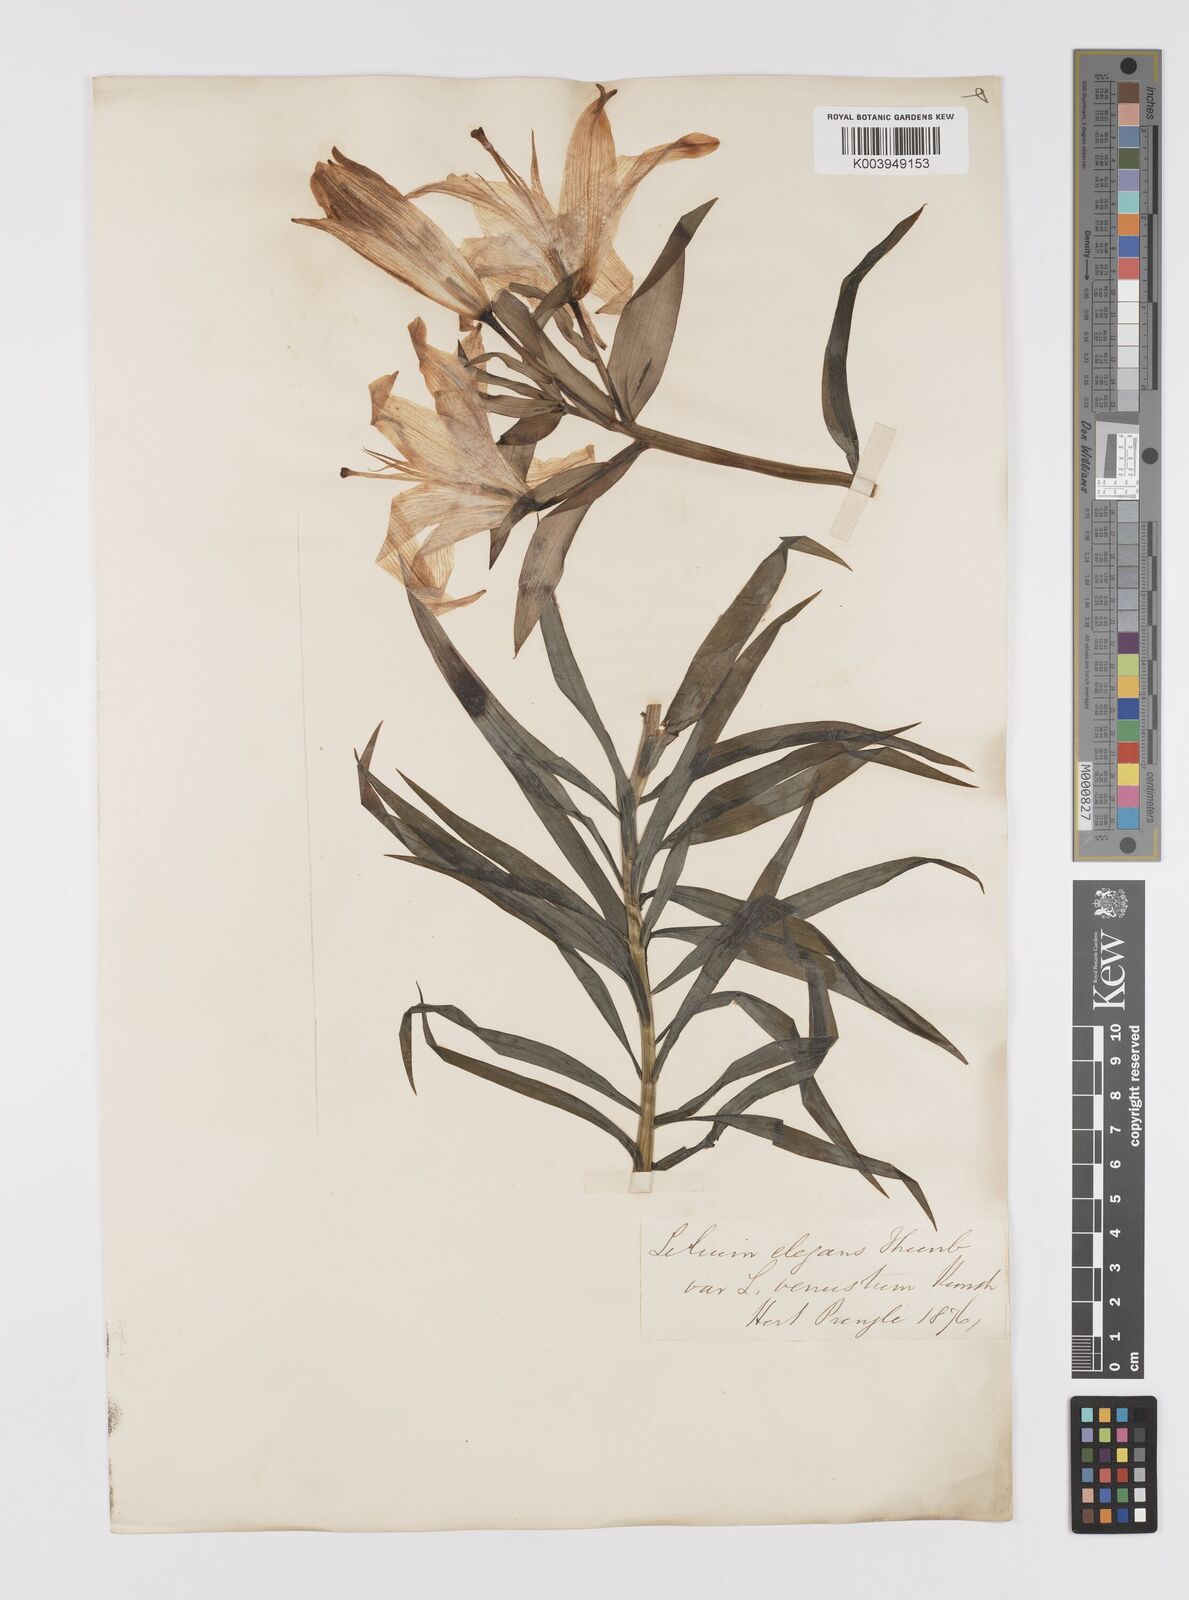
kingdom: Plantae
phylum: Tracheophyta
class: Liliopsida
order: Liliales
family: Liliaceae
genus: Lilium
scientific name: Lilium pensylvanicum
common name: Candlestick lily
